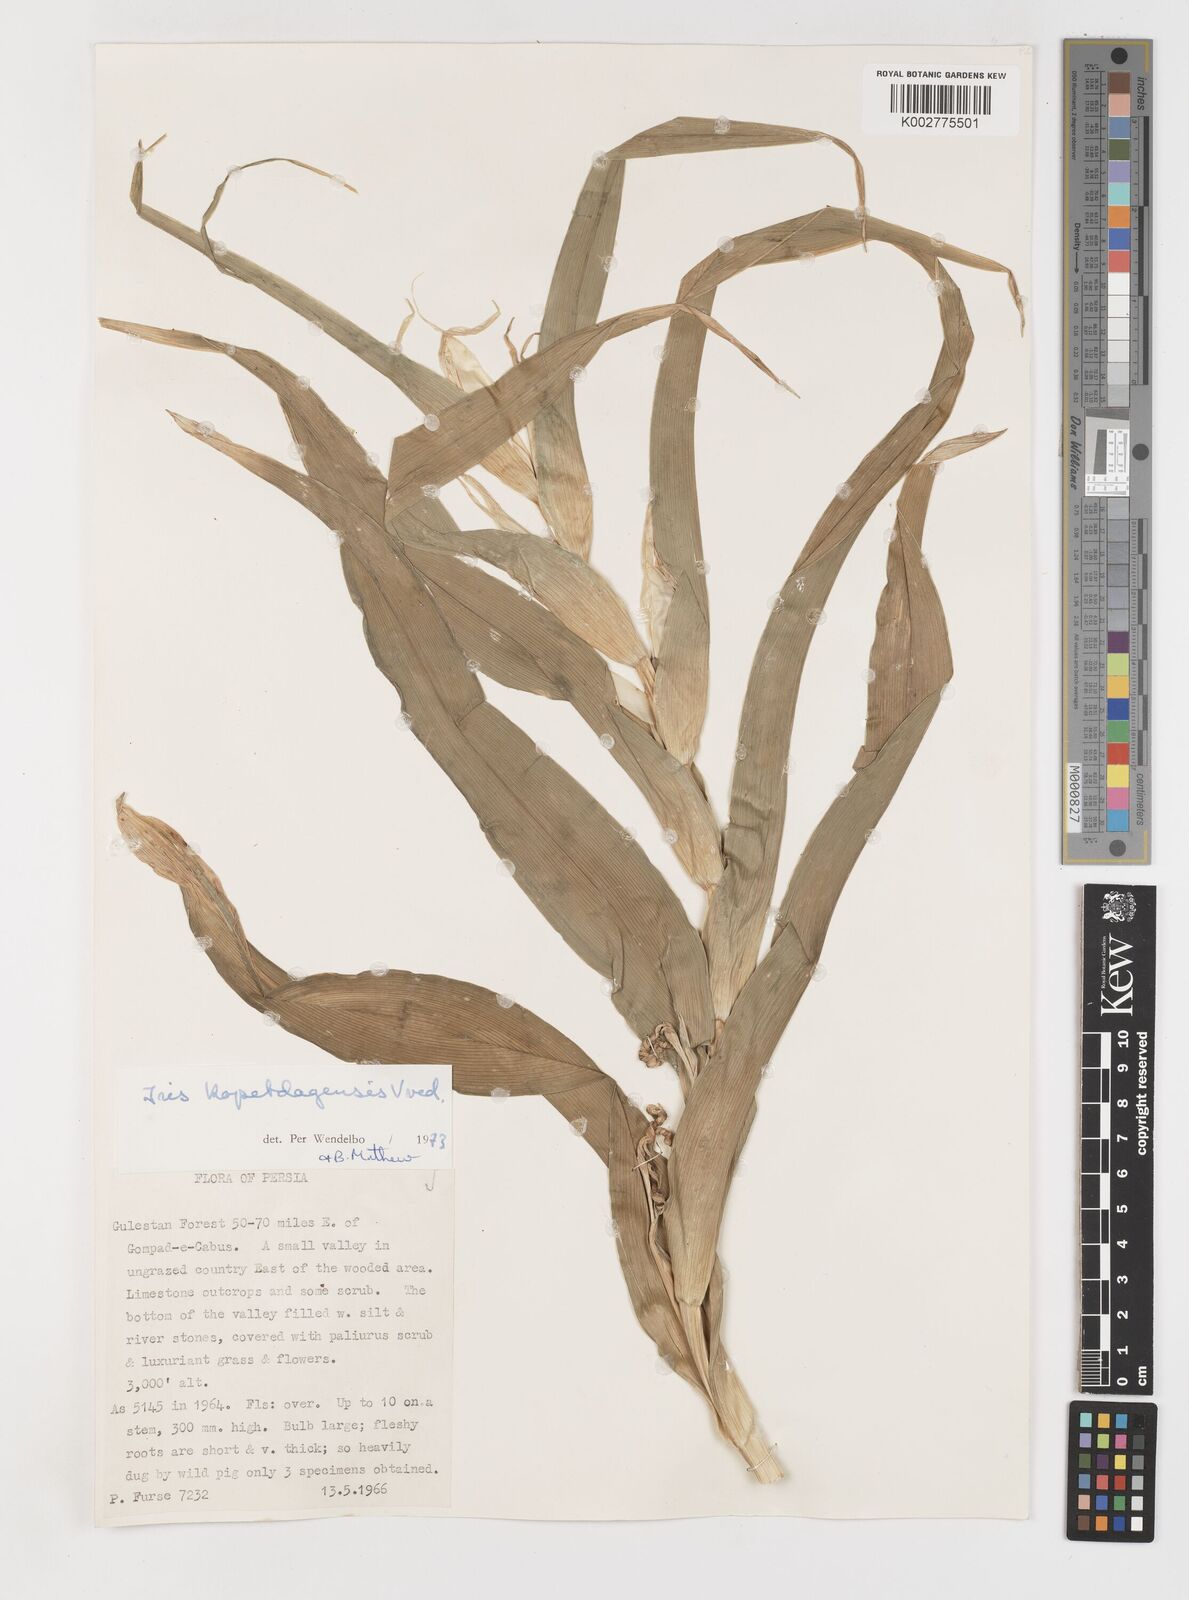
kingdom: Plantae
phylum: Tracheophyta
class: Liliopsida
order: Asparagales
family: Iridaceae
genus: Iris
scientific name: Iris kopetdagensis
